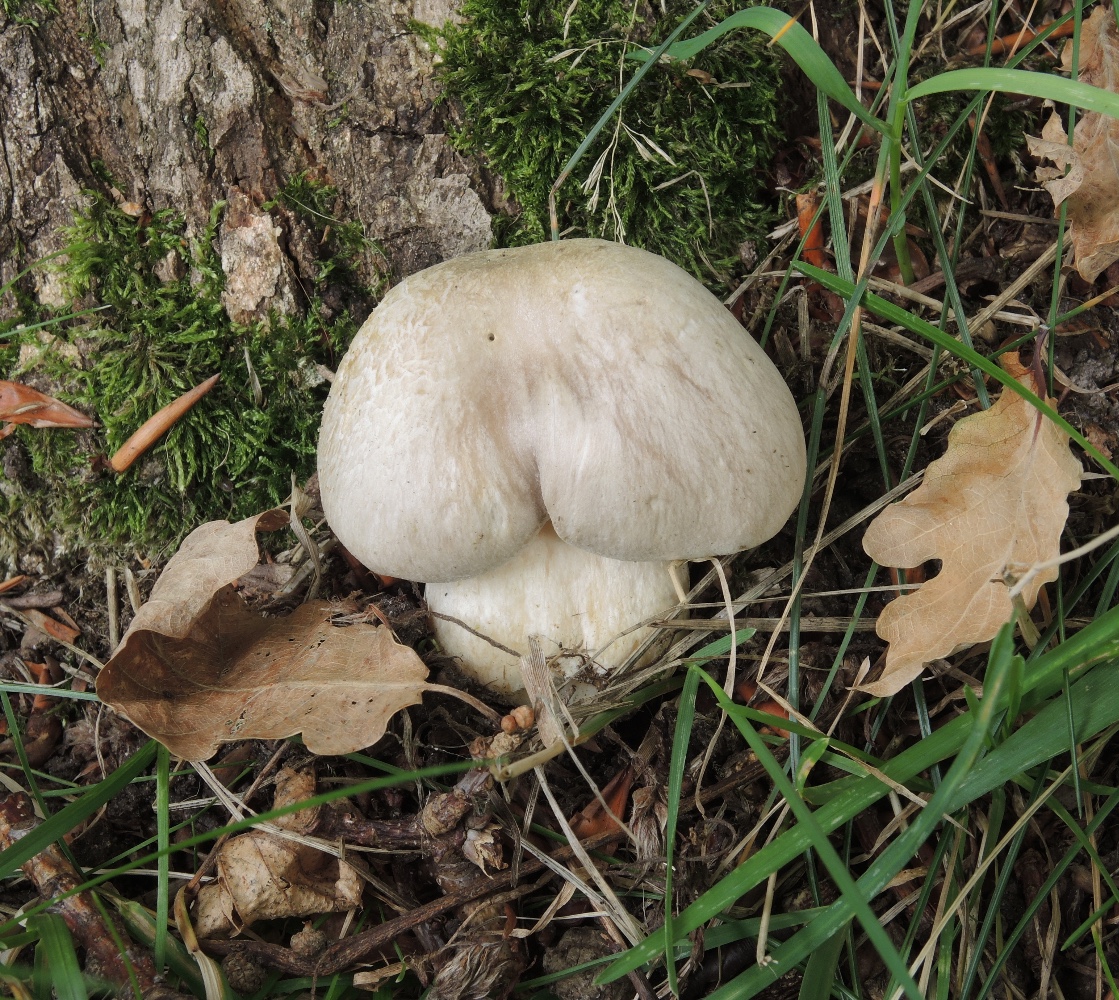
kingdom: Fungi
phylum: Basidiomycota
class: Agaricomycetes
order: Agaricales
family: Entolomataceae
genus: Entoloma
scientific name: Entoloma sinuatum
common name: giftig rødblad
